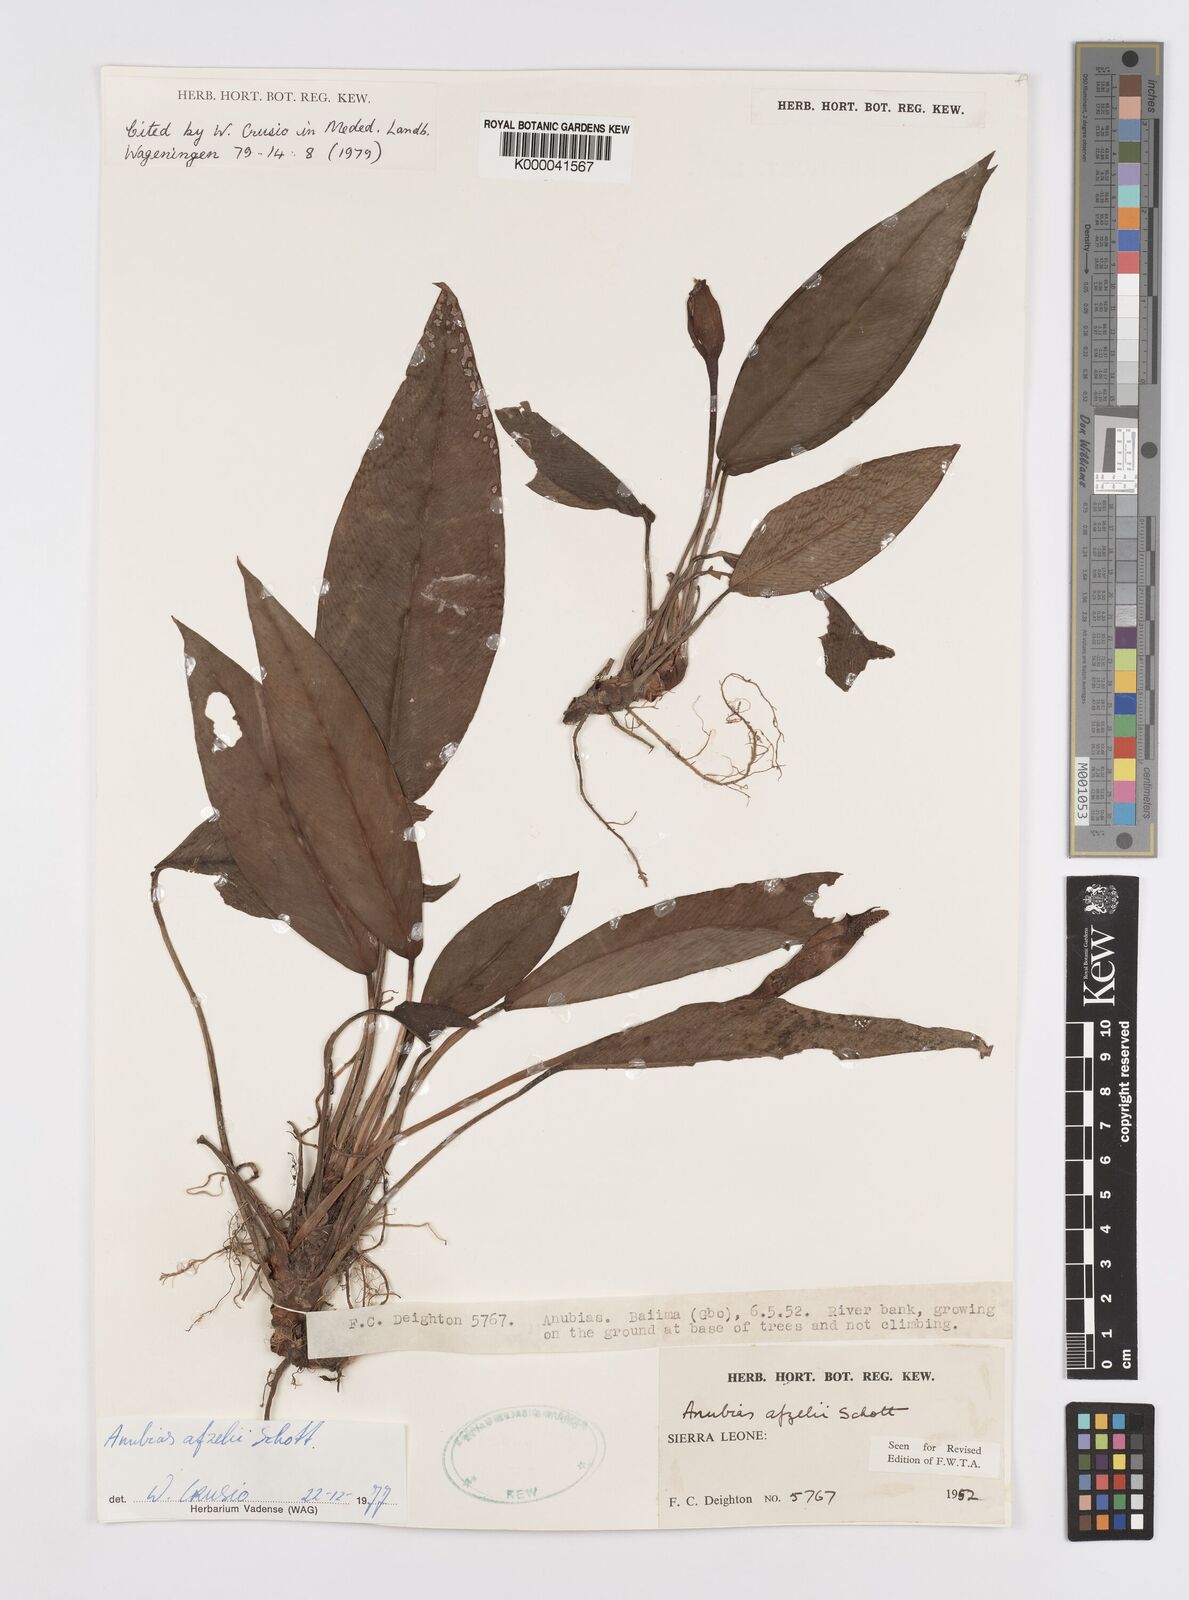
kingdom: Plantae
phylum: Tracheophyta
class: Liliopsida
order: Alismatales
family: Araceae
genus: Anubias
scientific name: Anubias afzelii
